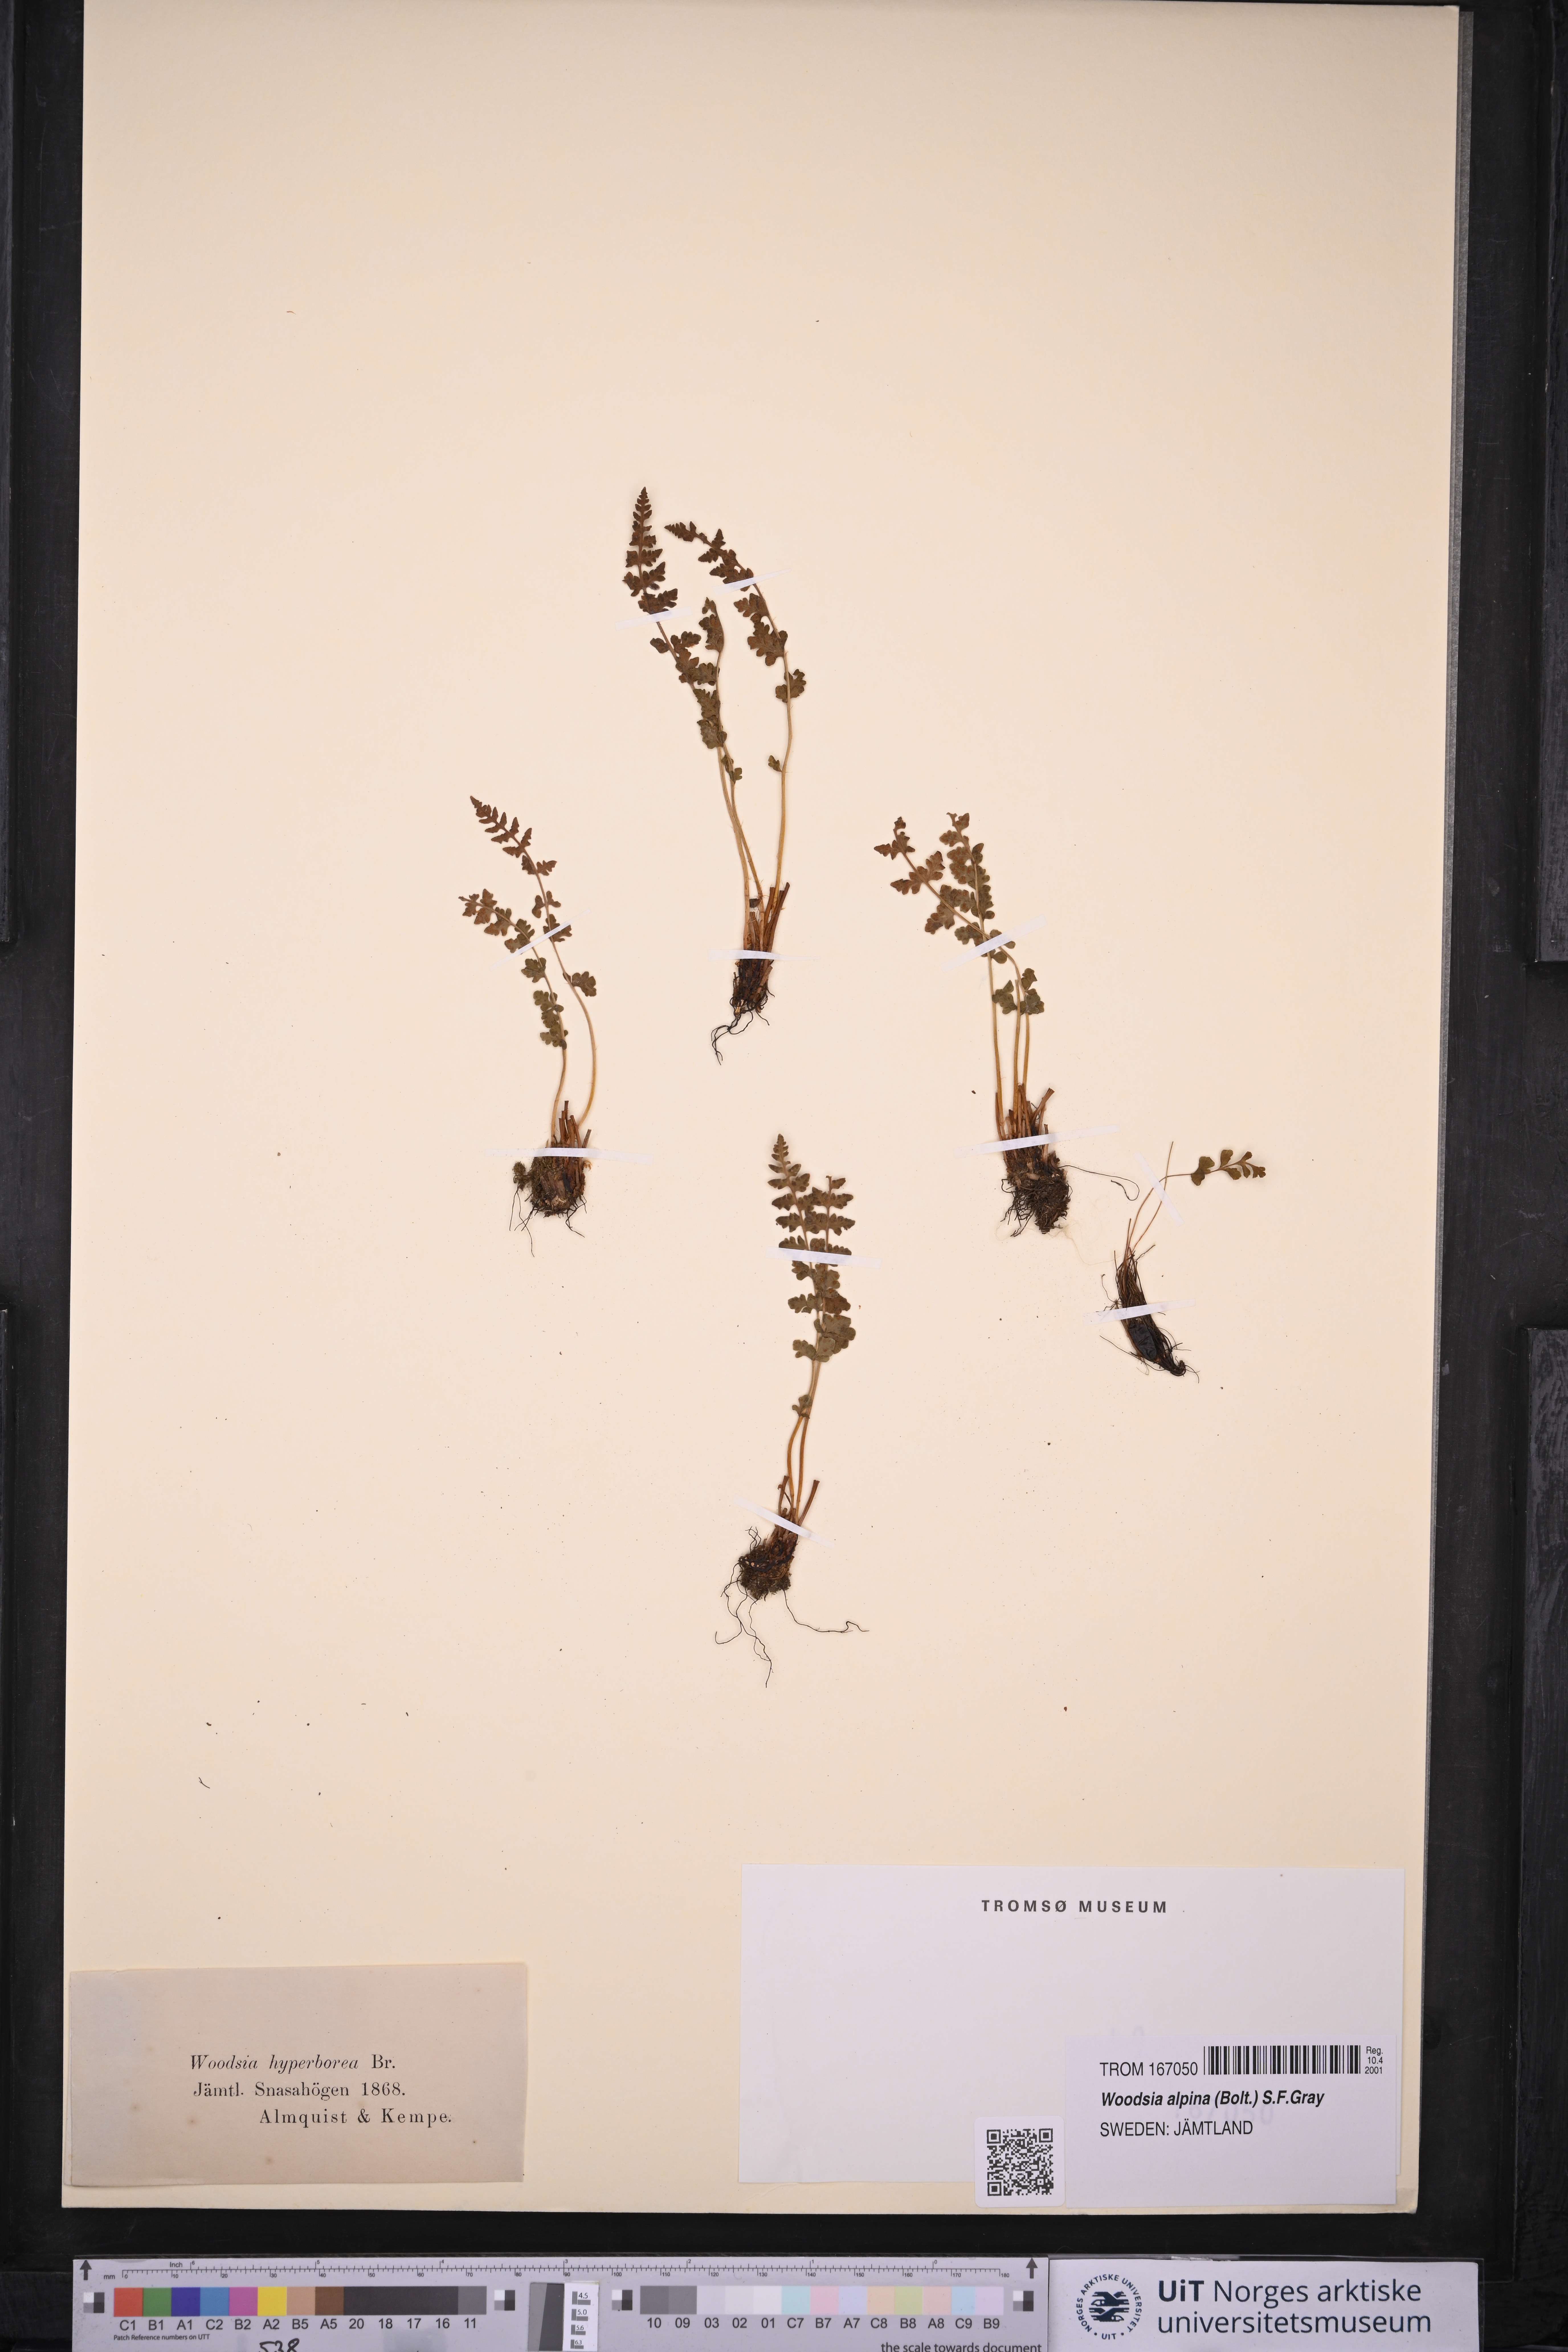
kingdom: Plantae
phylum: Tracheophyta
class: Polypodiopsida
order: Polypodiales
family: Woodsiaceae
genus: Woodsia
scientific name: Woodsia alpina
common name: Alpine woodsia
